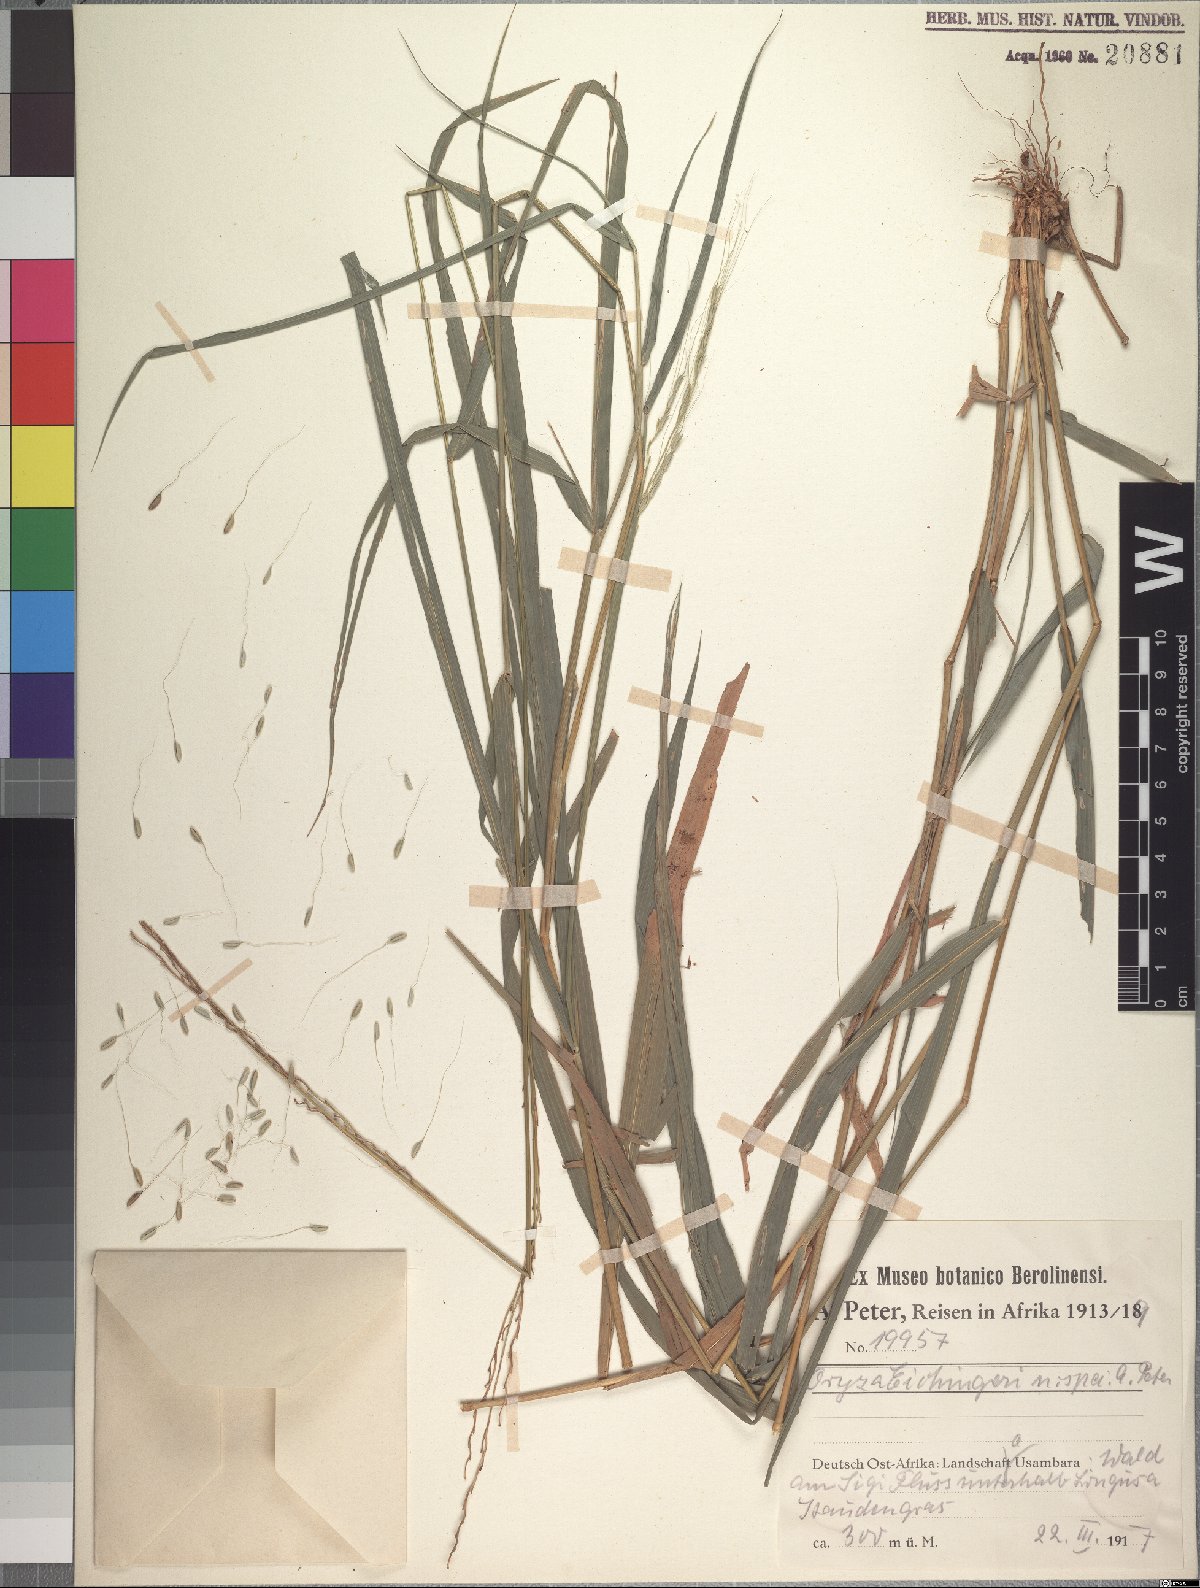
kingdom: Plantae
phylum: Tracheophyta
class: Liliopsida
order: Poales
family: Poaceae
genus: Oryza
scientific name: Oryza eichingeri
